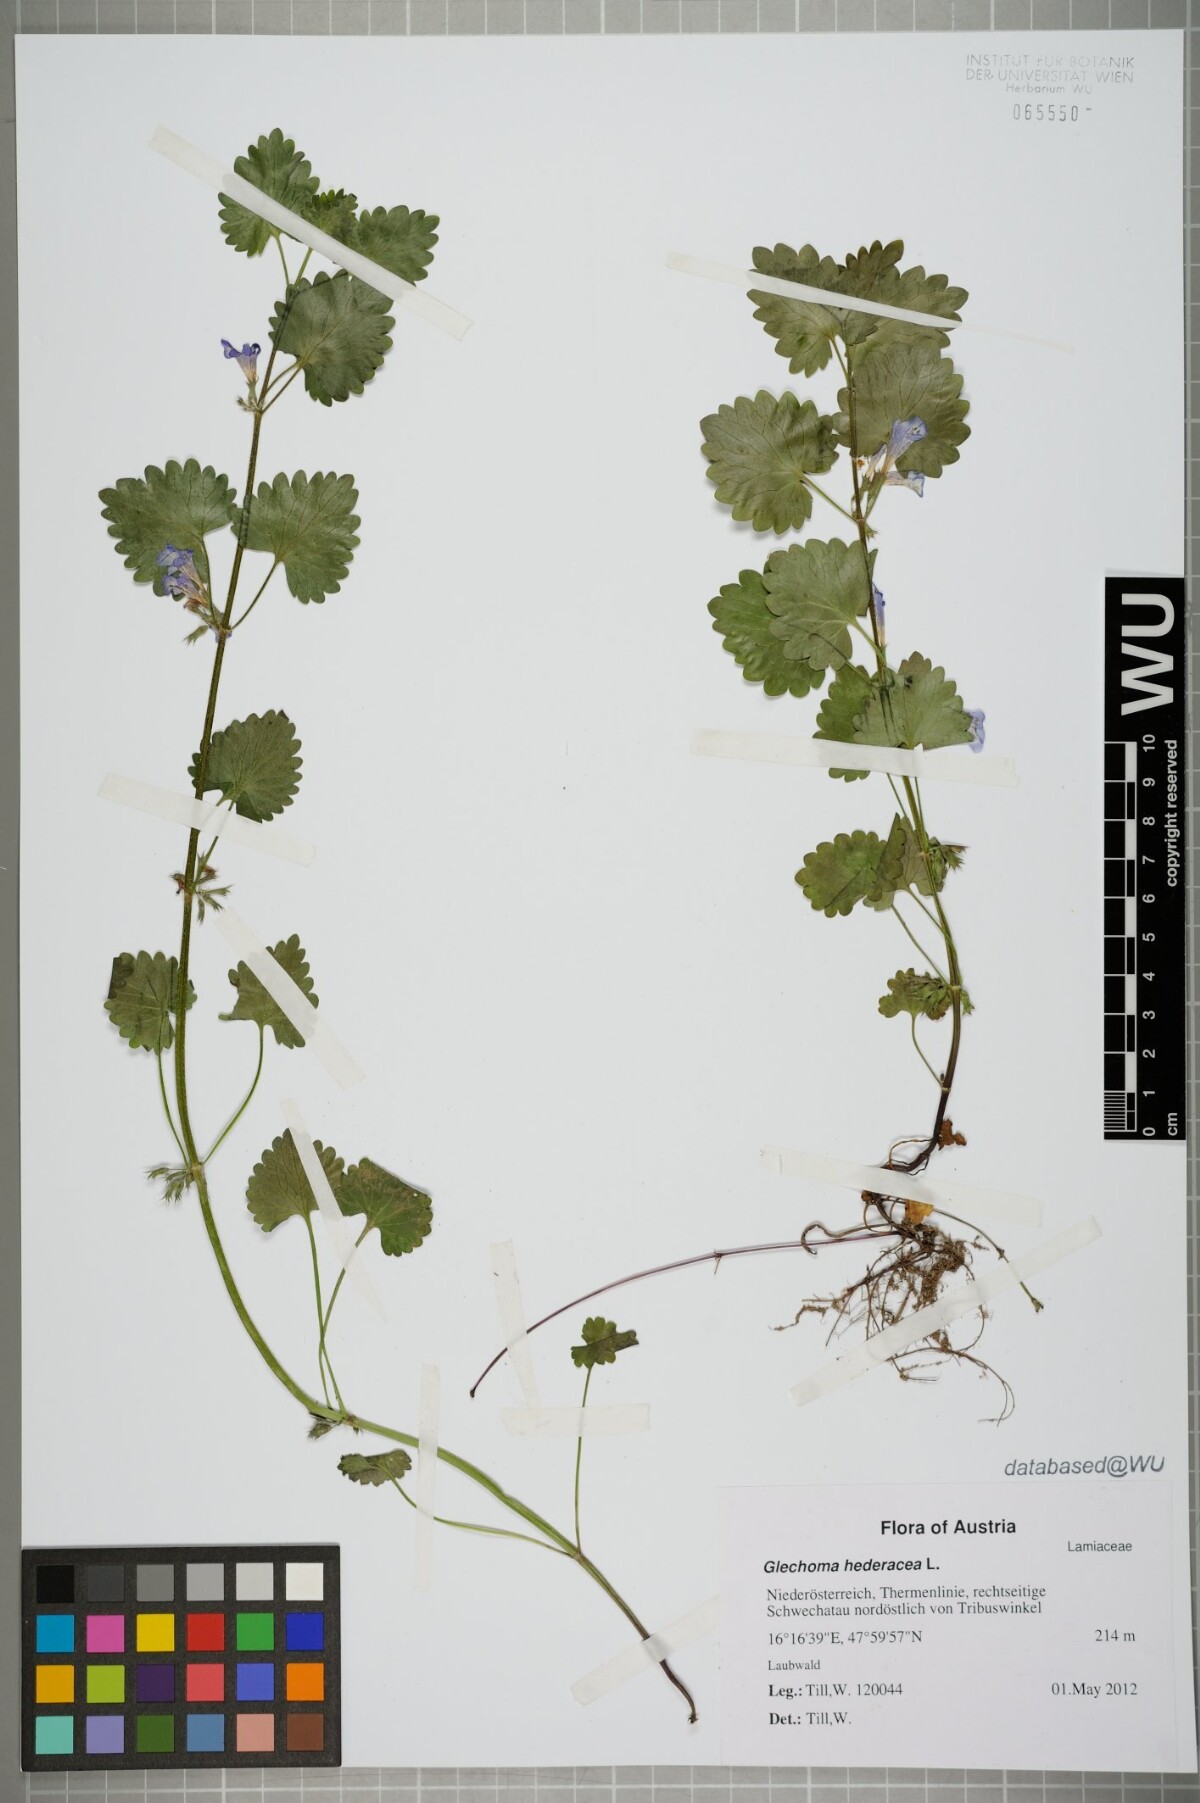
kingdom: Plantae
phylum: Tracheophyta
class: Magnoliopsida
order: Lamiales
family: Lamiaceae
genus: Glechoma
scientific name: Glechoma hederacea
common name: Ground ivy
